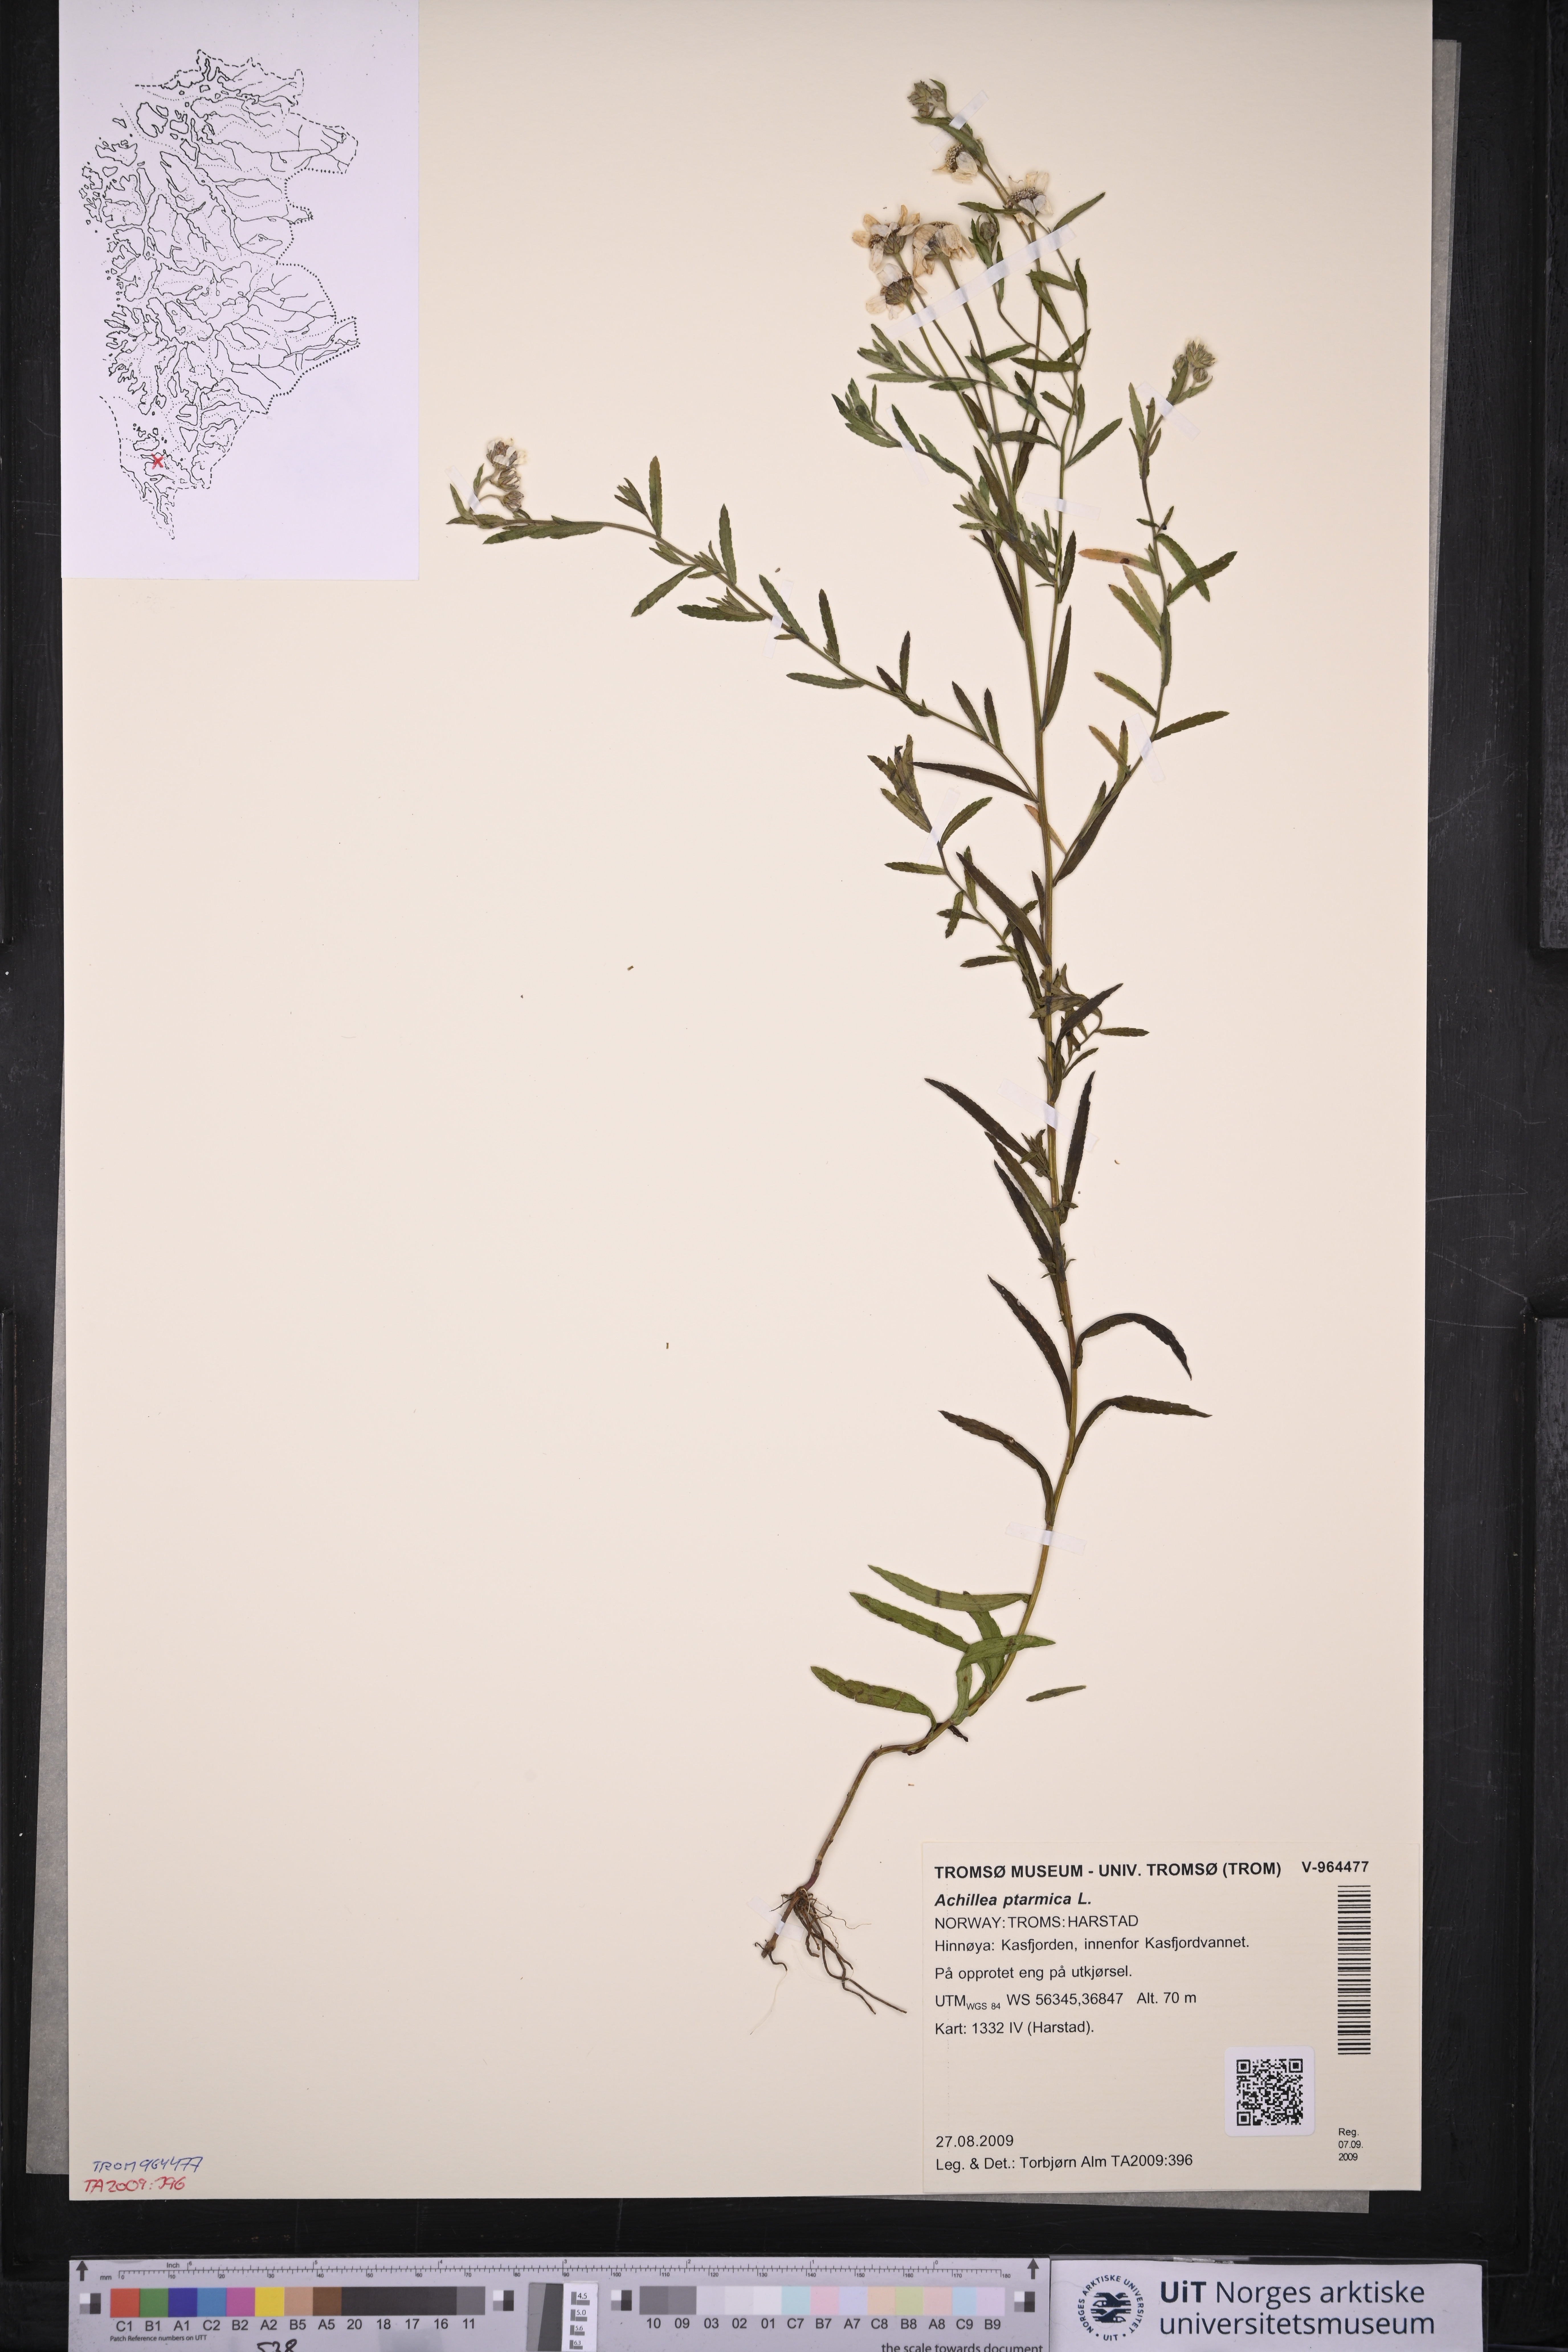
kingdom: Plantae
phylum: Tracheophyta
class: Magnoliopsida
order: Asterales
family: Asteraceae
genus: Achillea
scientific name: Achillea ptarmica
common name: Sneezeweed
